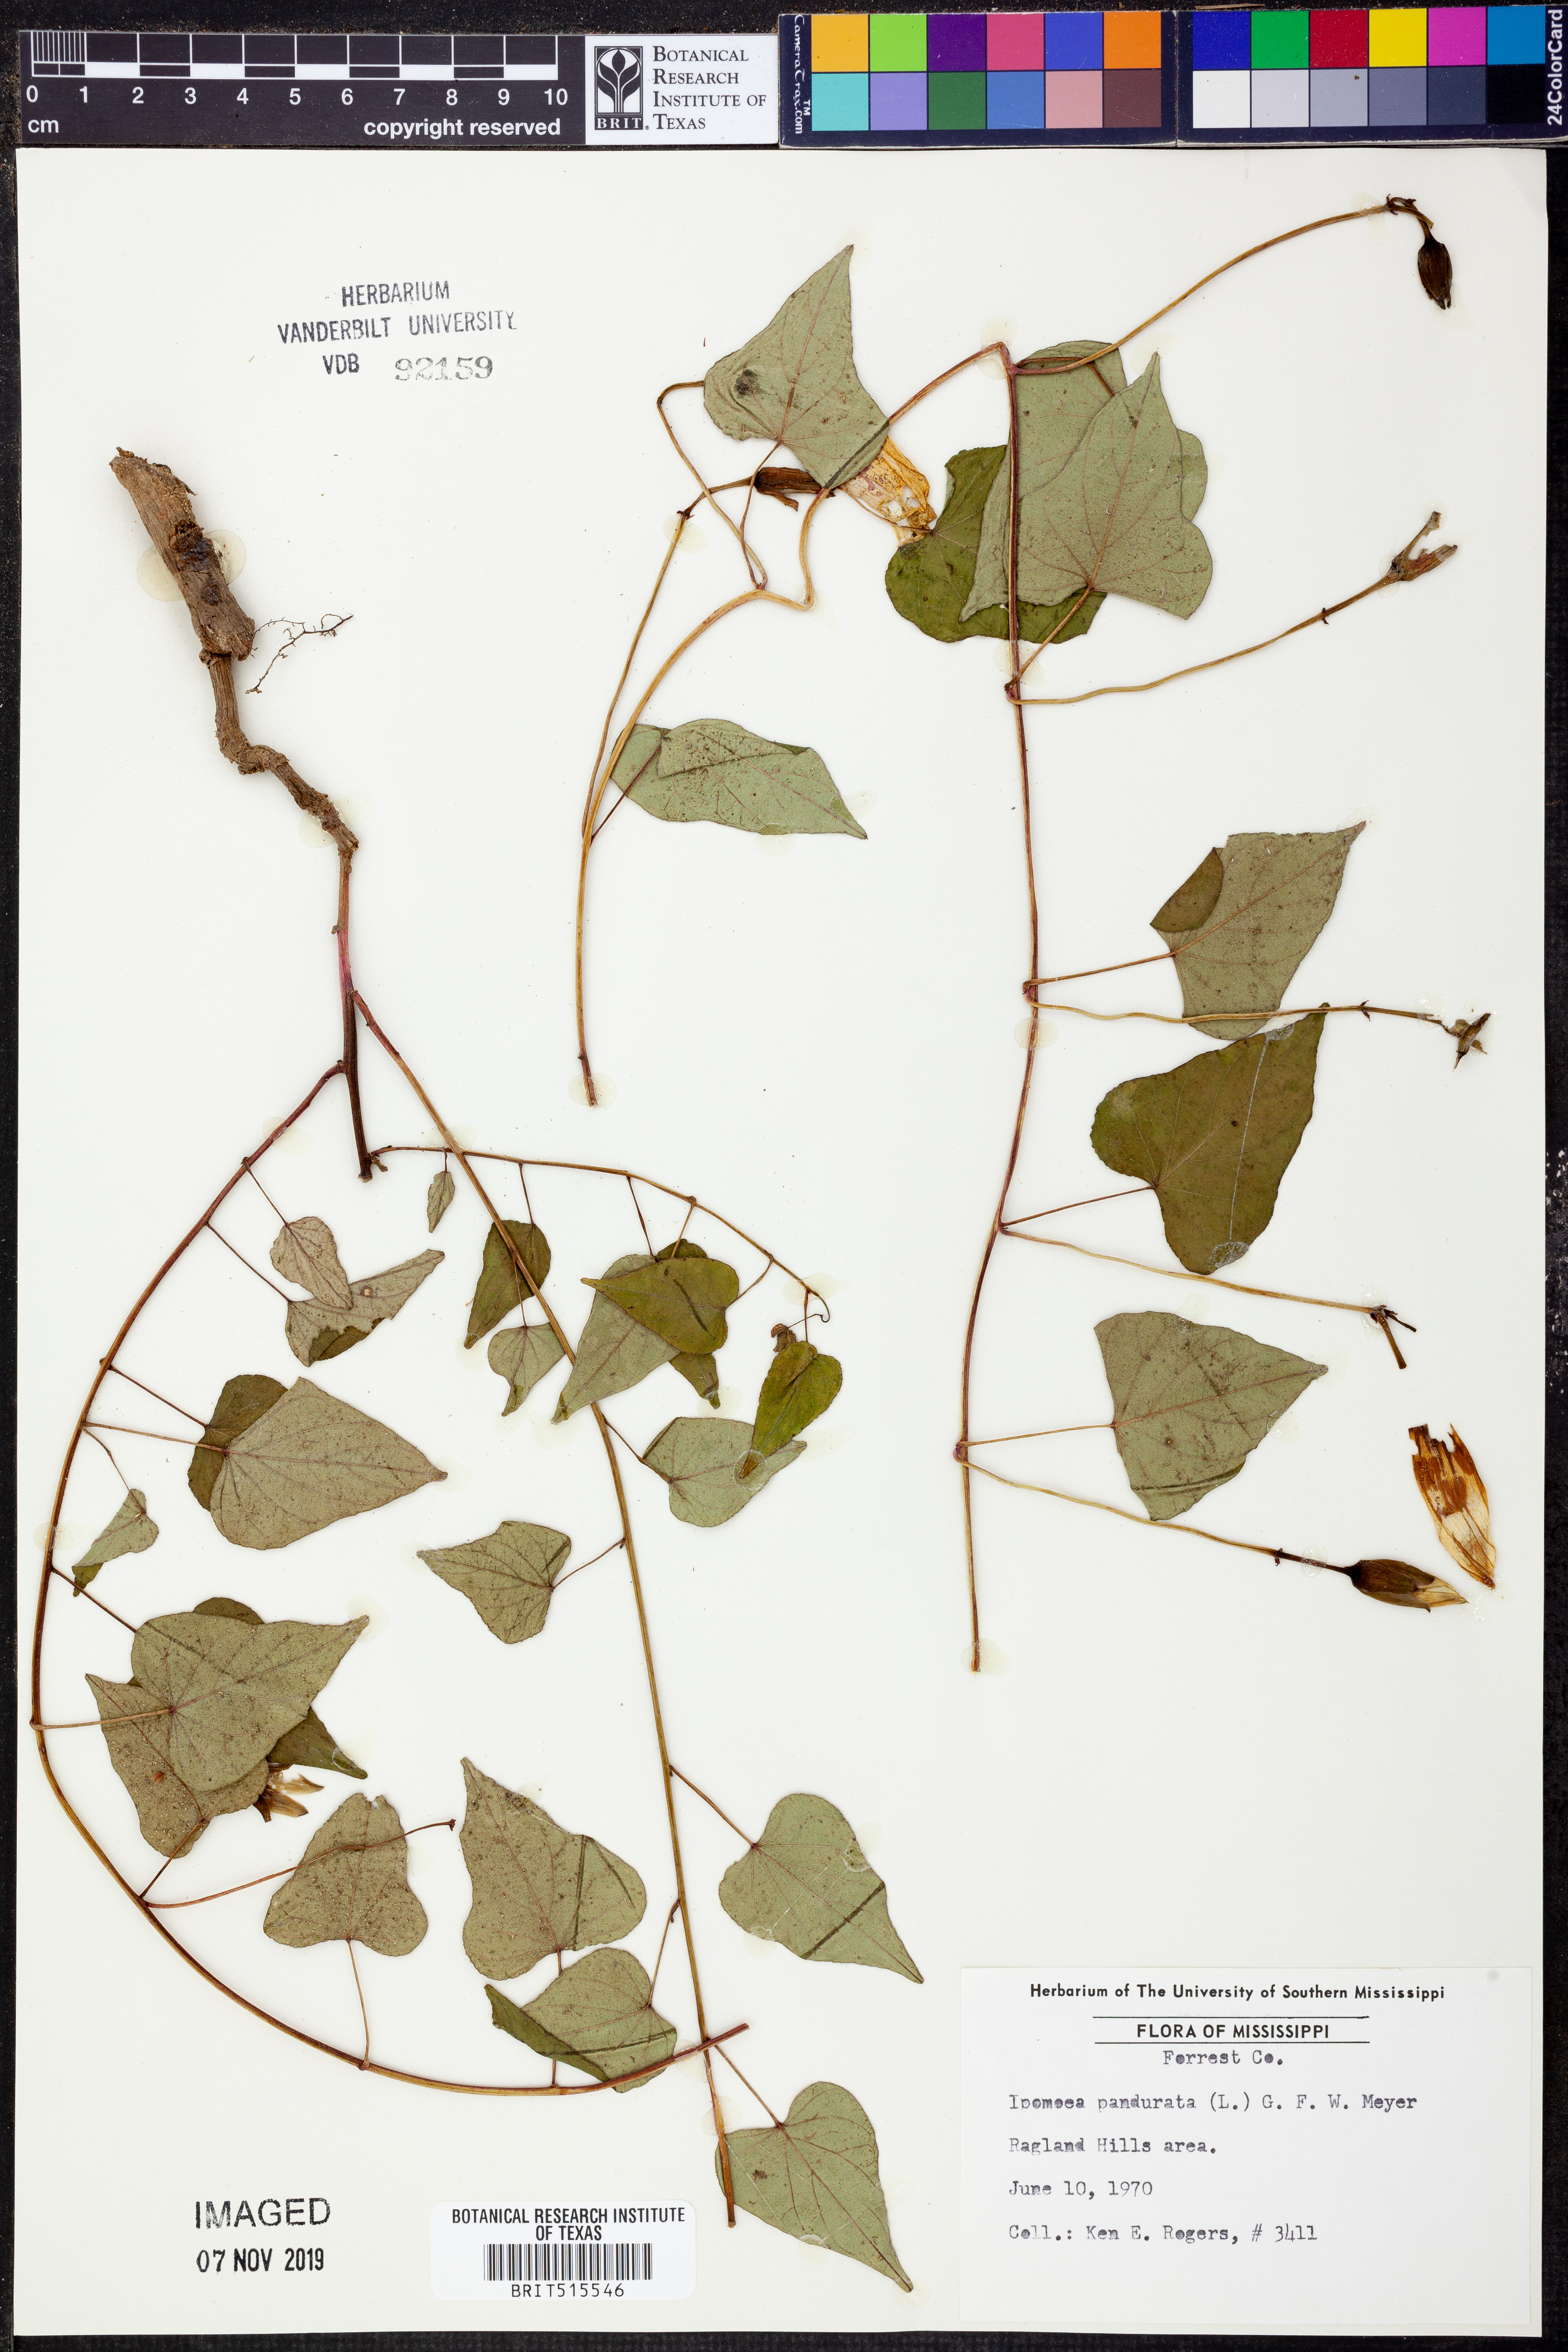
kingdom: Plantae
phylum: Tracheophyta
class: Magnoliopsida
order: Solanales
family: Convolvulaceae
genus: Ipomoea
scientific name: Ipomoea pandurata
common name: Man-of-the-earth
